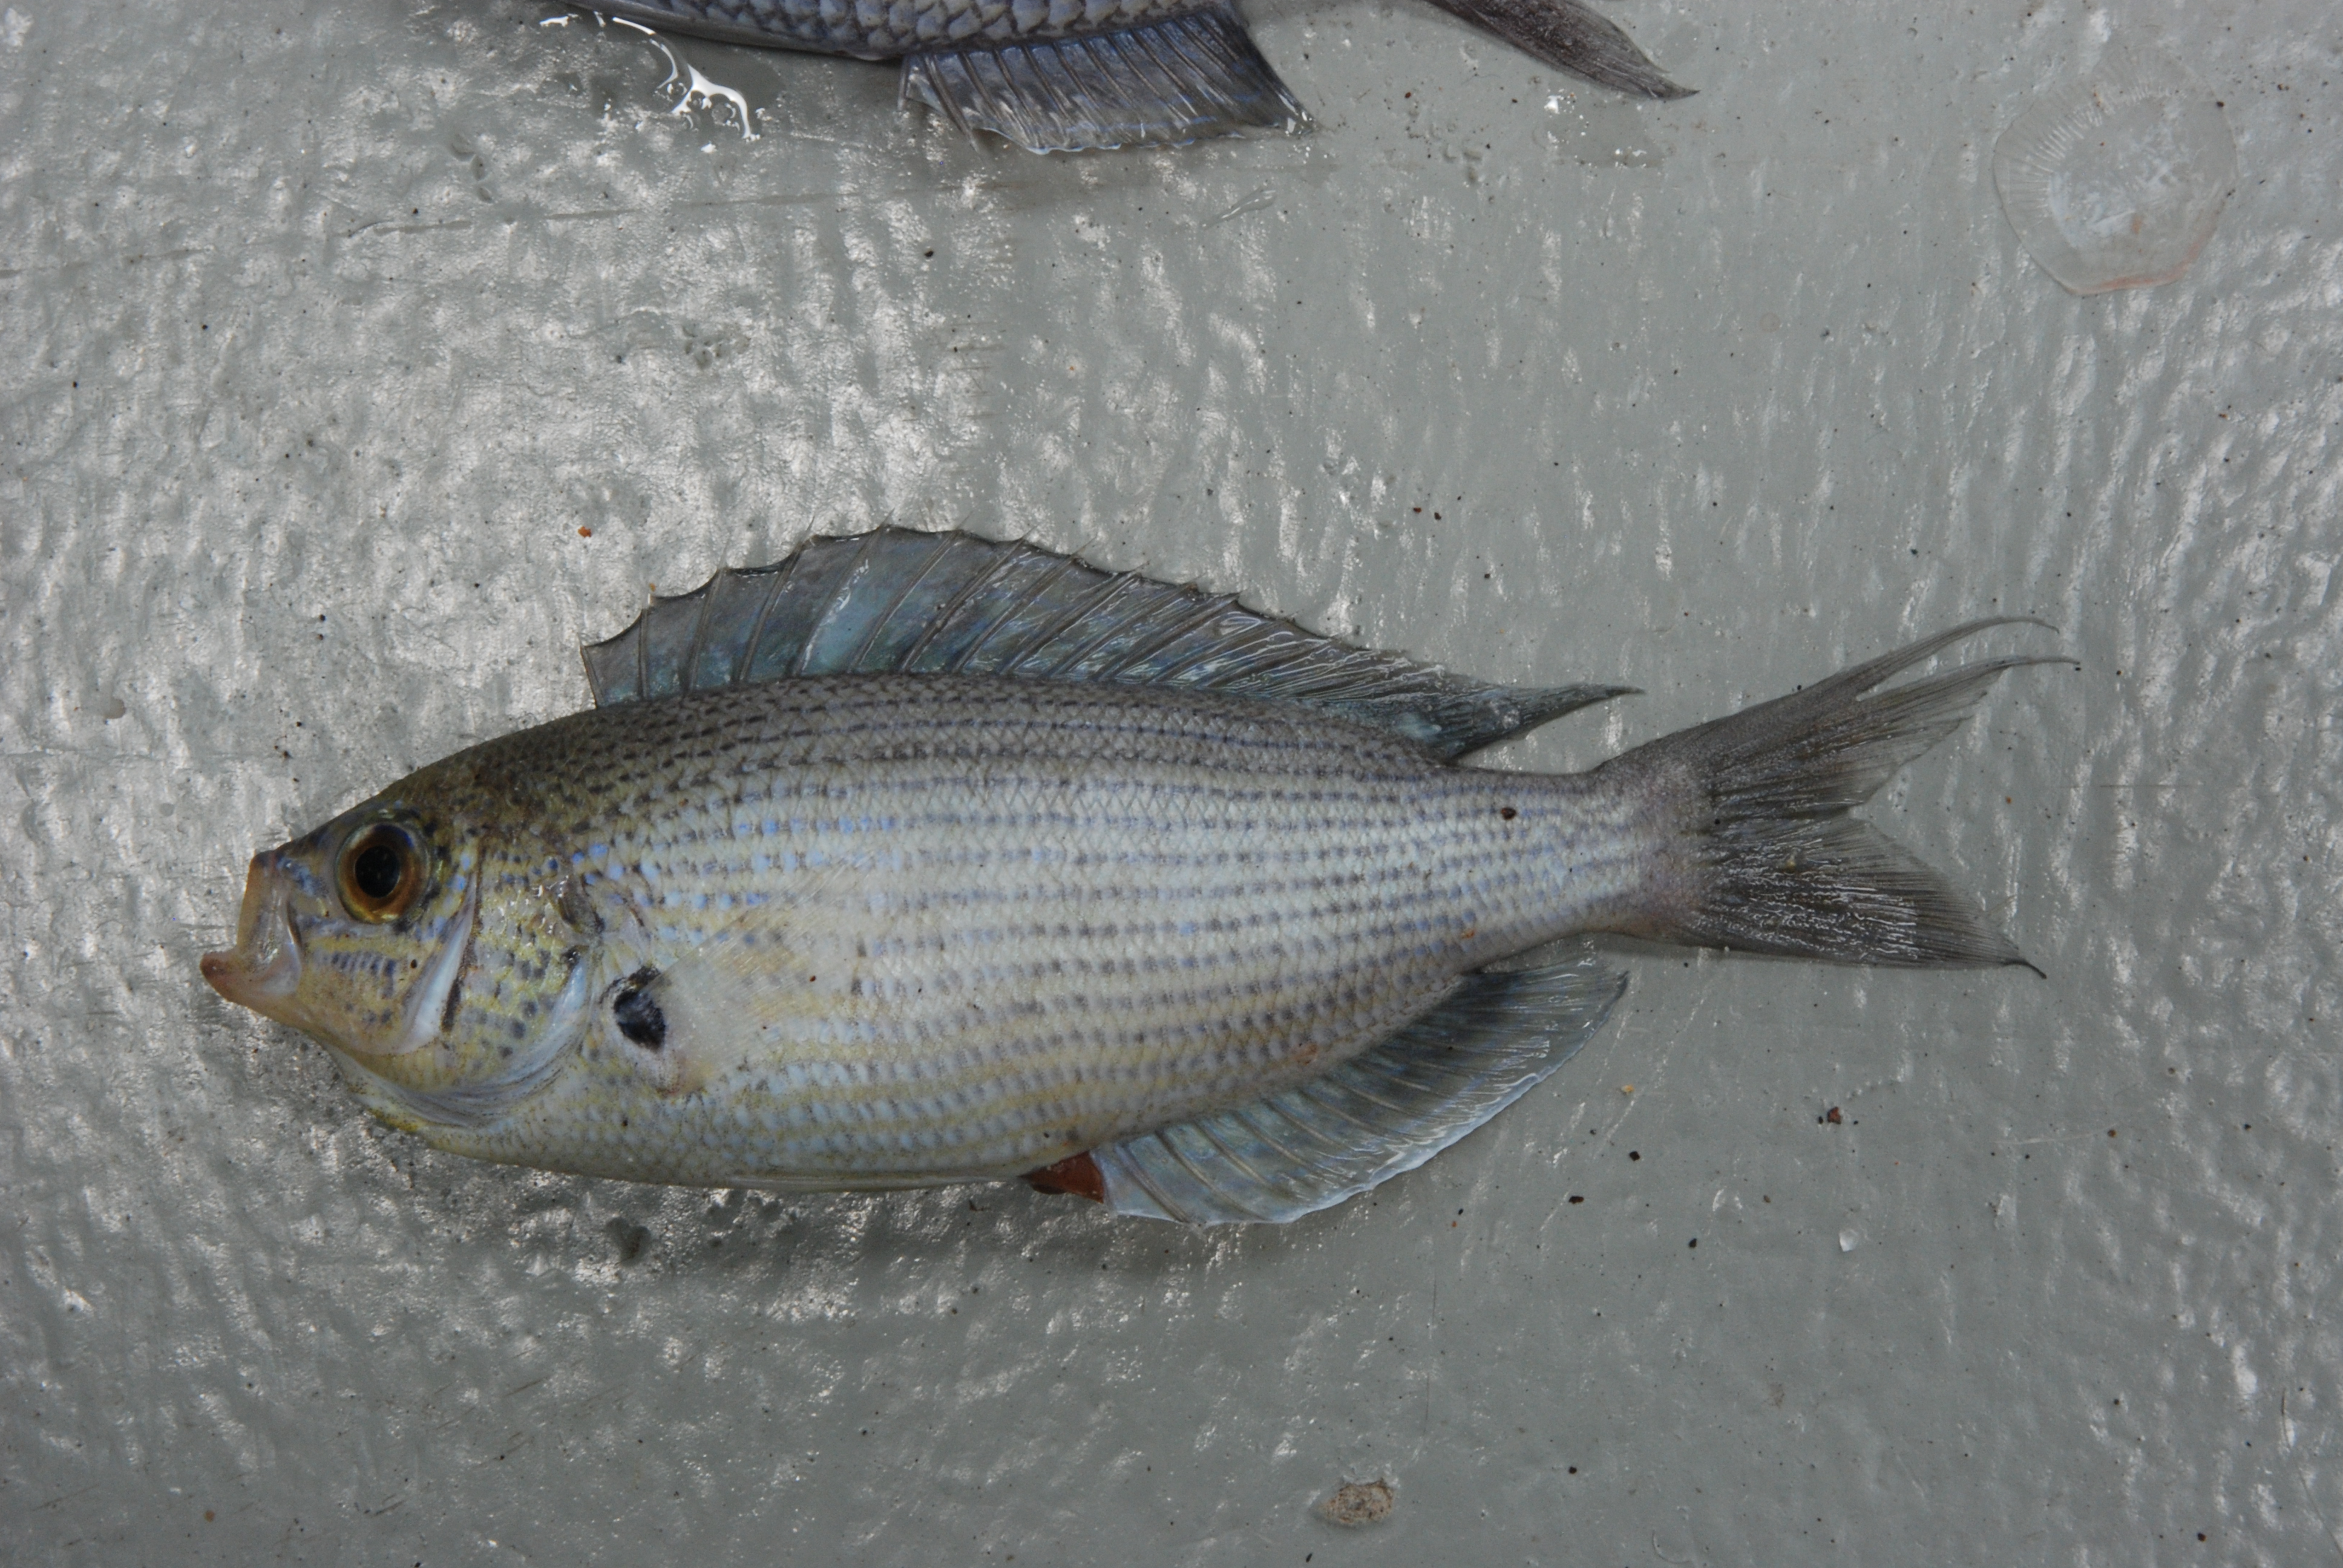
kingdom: Animalia
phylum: Chordata
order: Perciformes
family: Pomacentridae
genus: Teixeirichthys
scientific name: Teixeirichthys jordani
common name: Jordan's damsel
